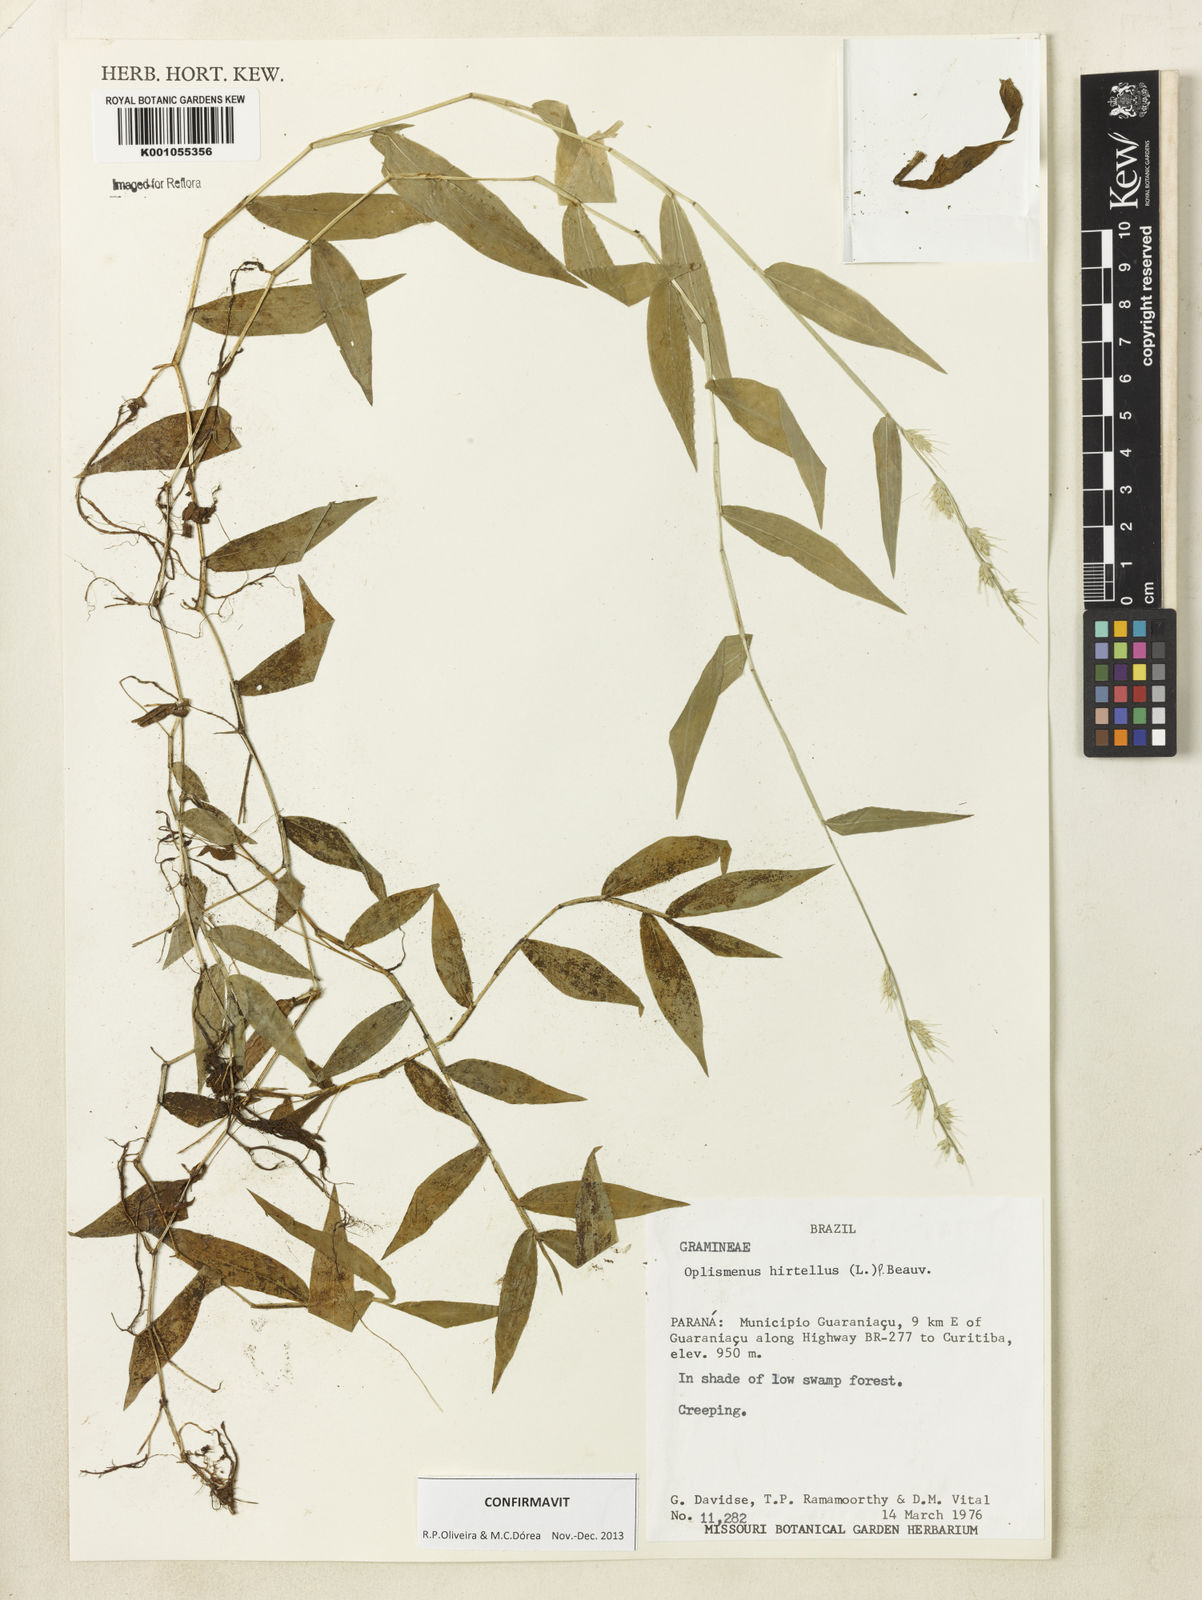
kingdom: Plantae
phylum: Tracheophyta
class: Liliopsida
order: Poales
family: Poaceae
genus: Oplismenus
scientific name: Oplismenus hirtellus
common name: Basketgrass
